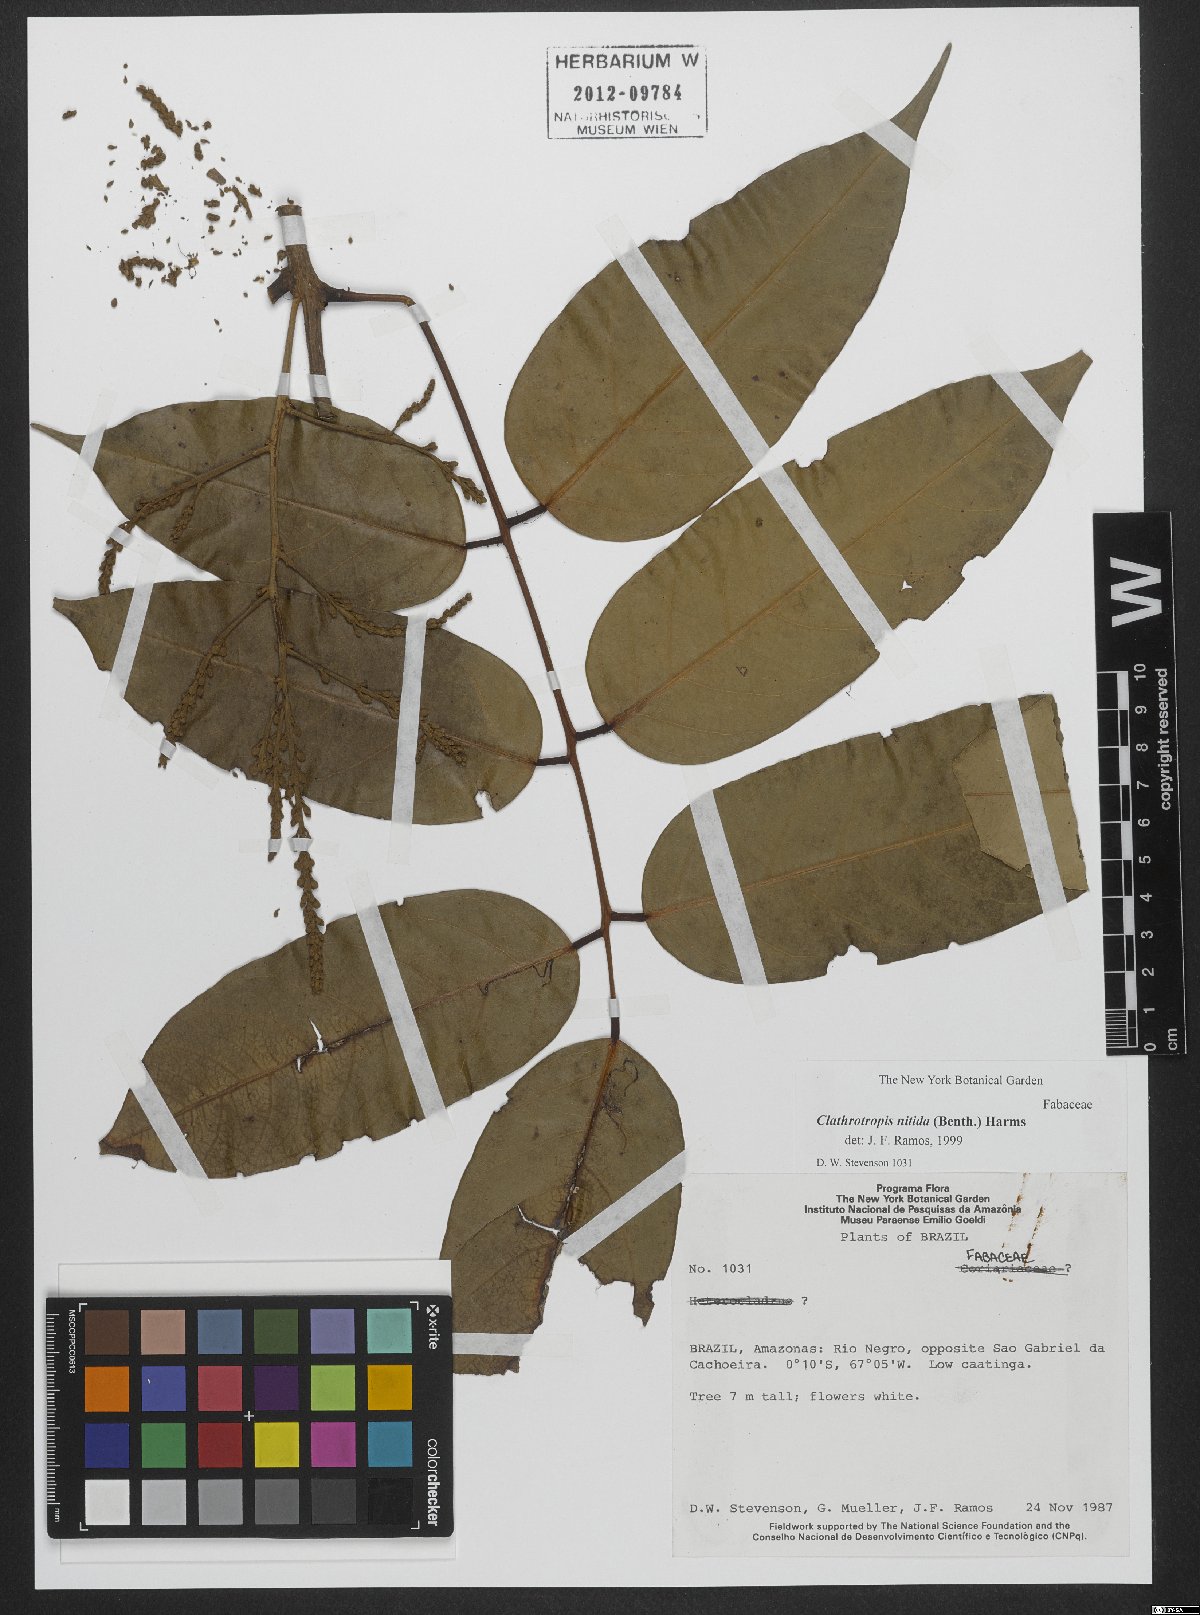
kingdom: Plantae
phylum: Tracheophyta
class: Magnoliopsida
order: Fabales
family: Fabaceae
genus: Clathrotropis
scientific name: Clathrotropis nitida
